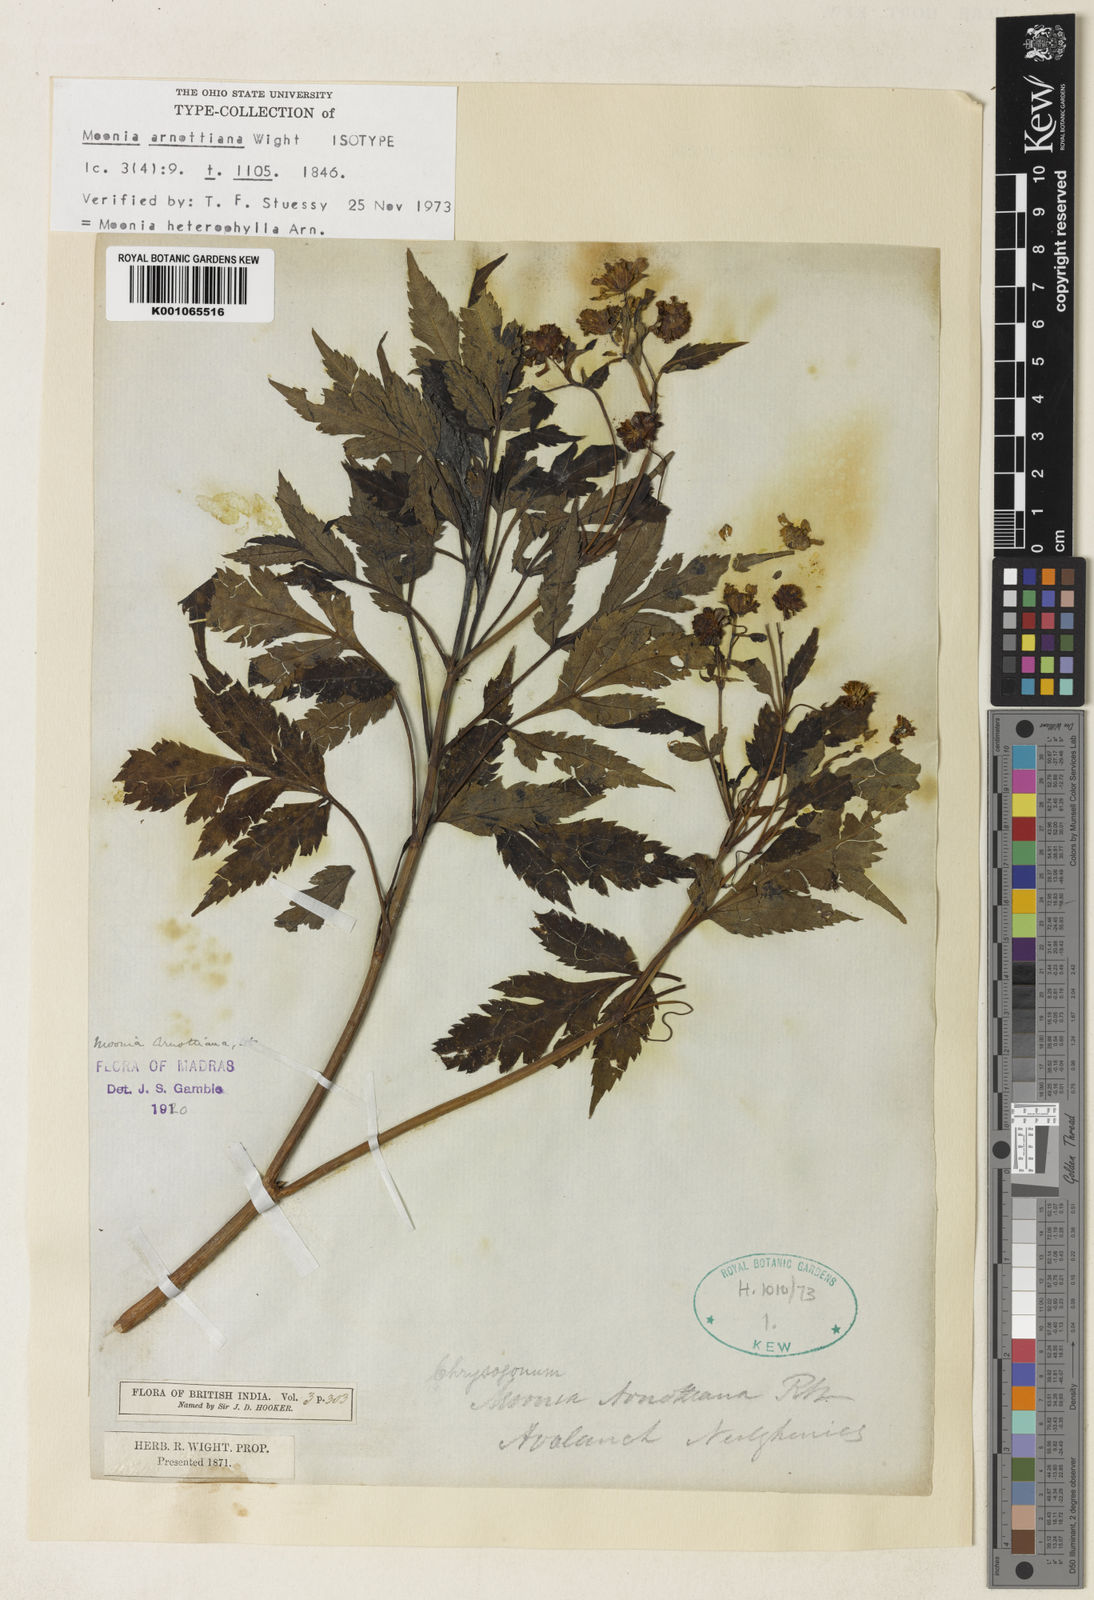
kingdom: Plantae
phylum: Tracheophyta
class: Magnoliopsida
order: Asterales
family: Asteraceae
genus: Moonia
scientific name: Moonia heterophylla
